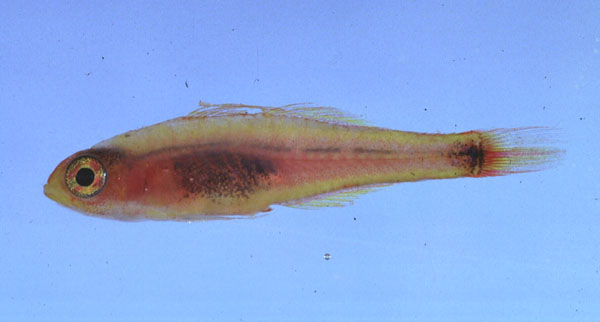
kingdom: Animalia
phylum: Chordata
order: Perciformes
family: Gobiidae
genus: Trimma
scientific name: Trimma nasa
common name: Nasal dwarfgoby
